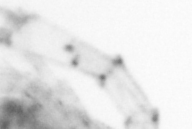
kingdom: Animalia
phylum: Arthropoda
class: Copepoda
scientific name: Copepoda
